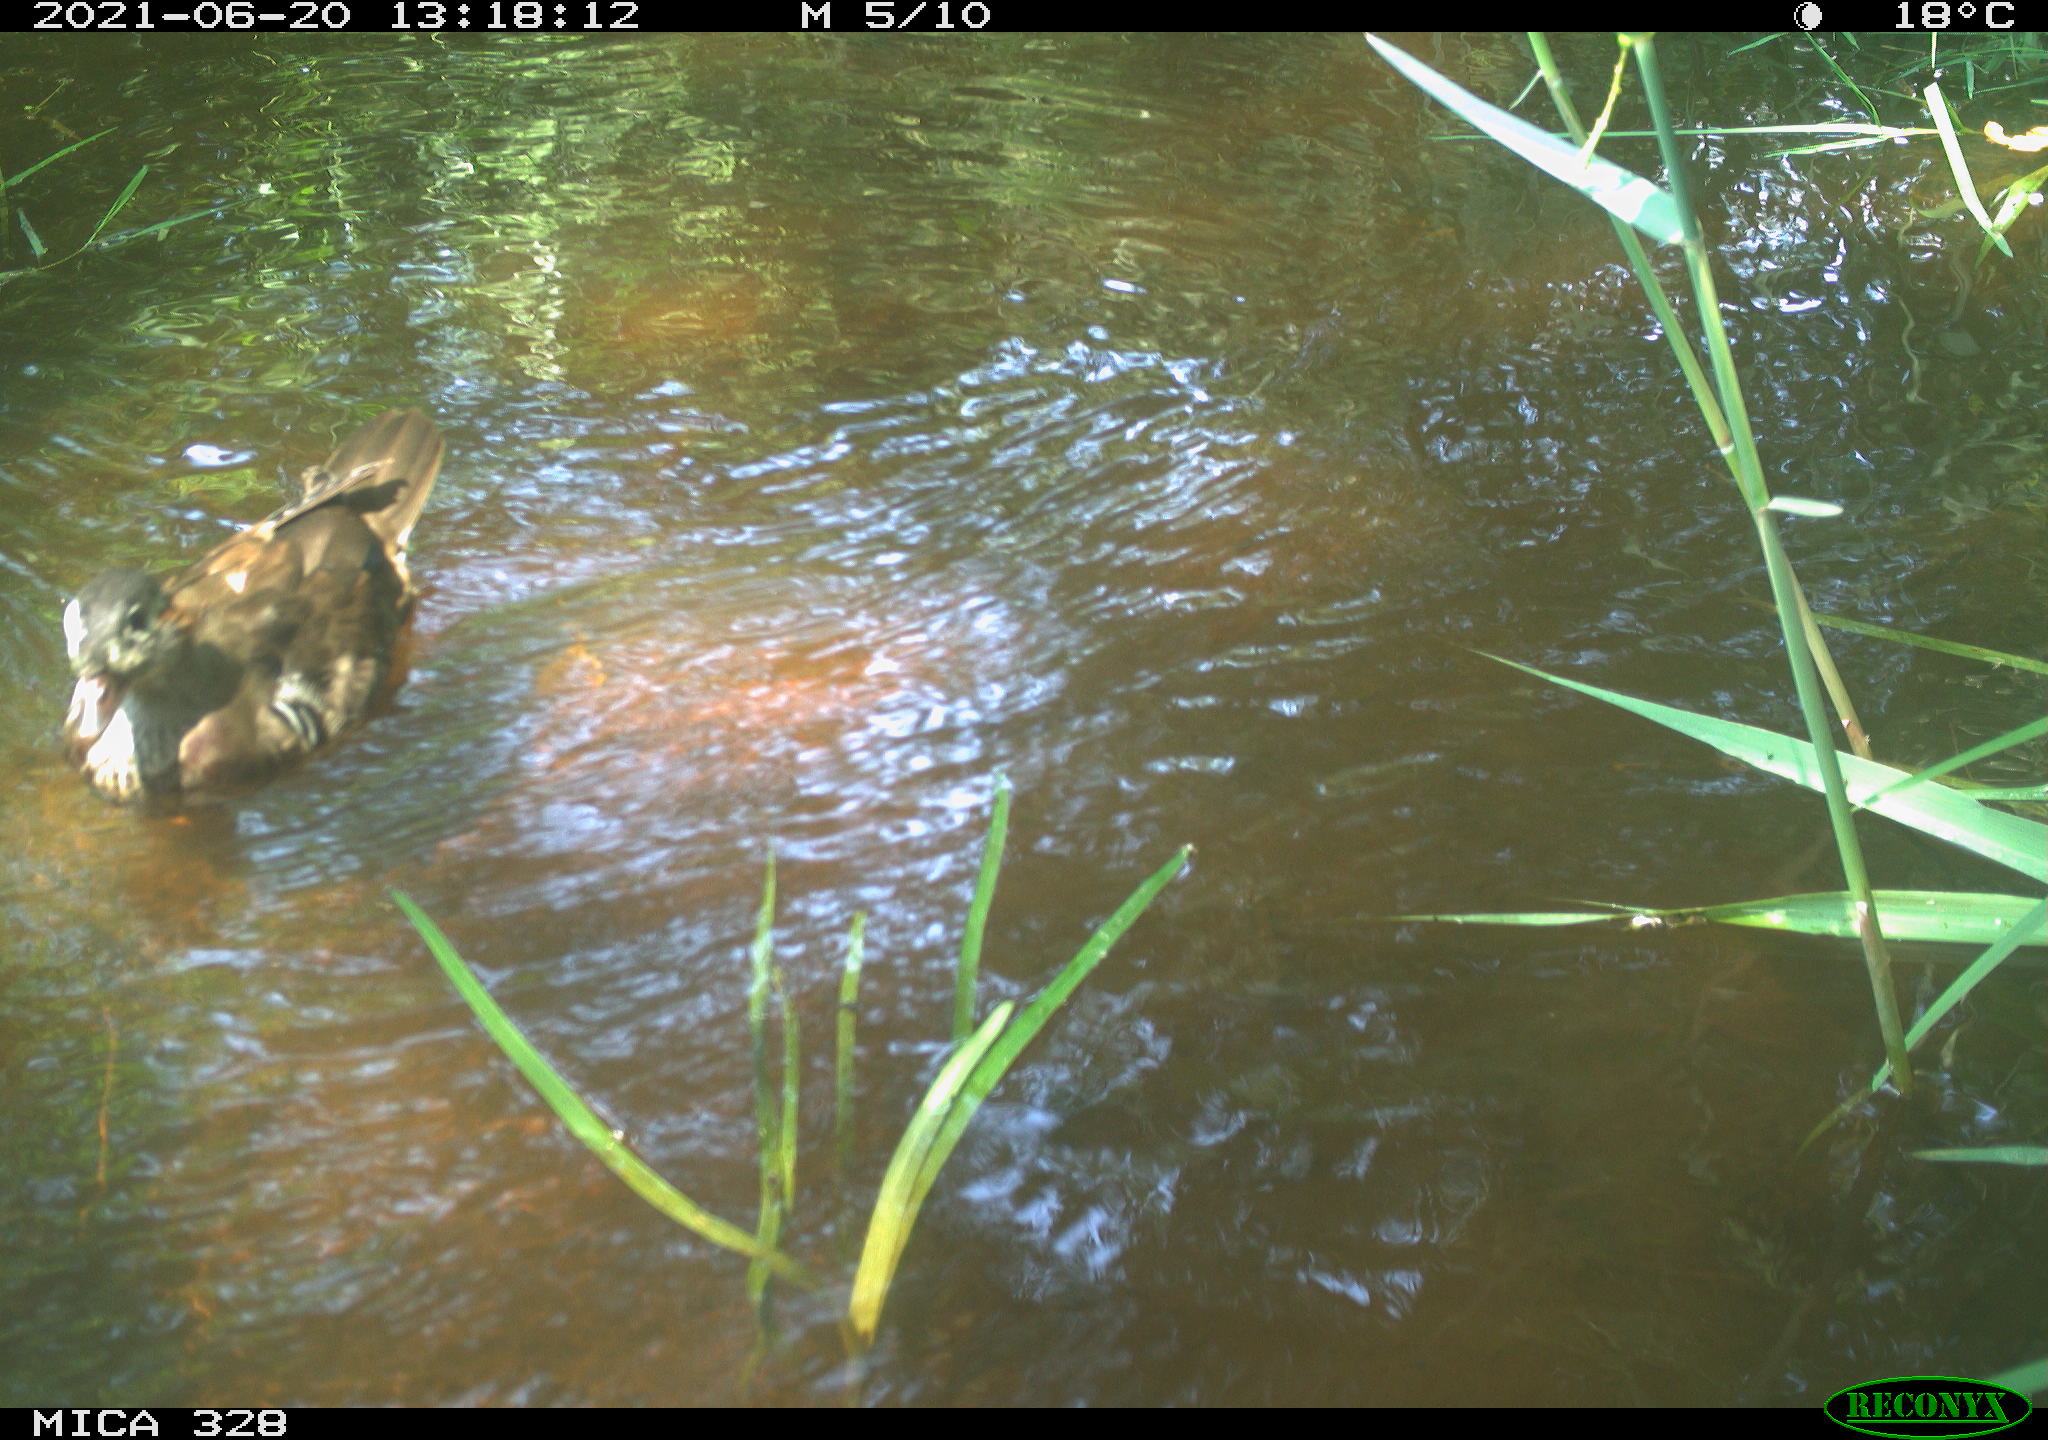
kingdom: Animalia
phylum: Chordata
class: Aves
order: Anseriformes
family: Anatidae
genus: Aix
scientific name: Aix galericulata
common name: Mandarin duck
